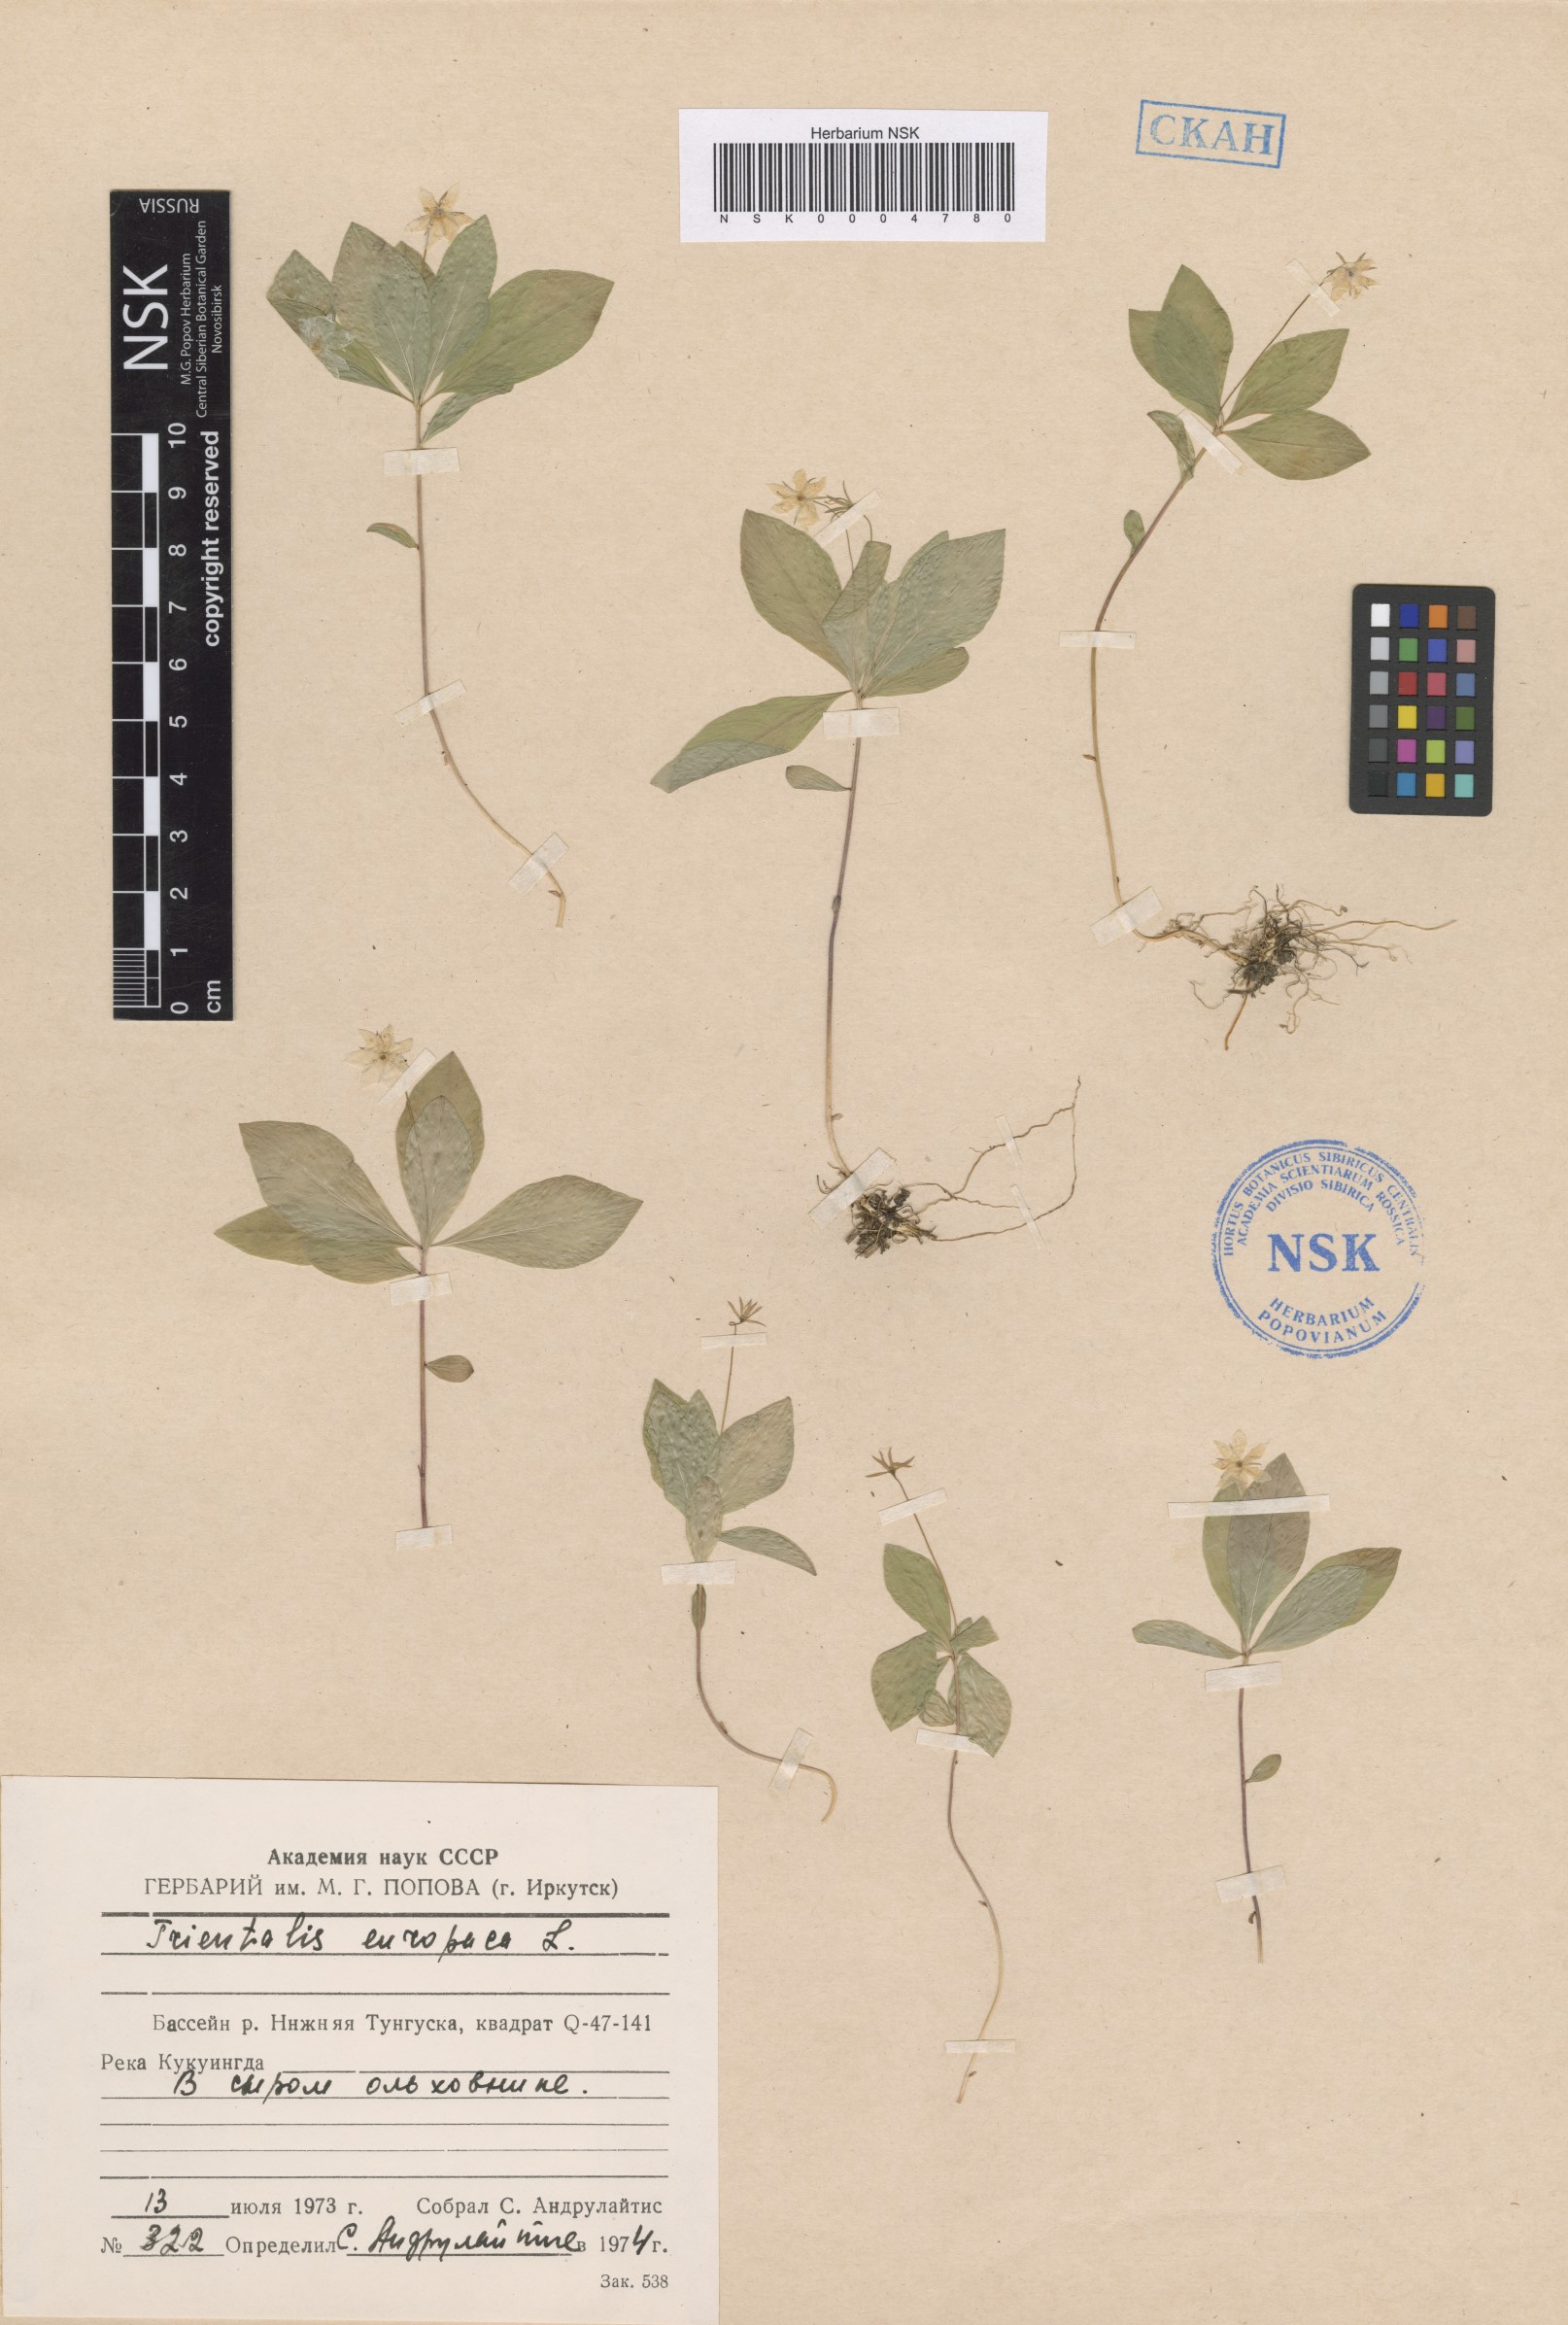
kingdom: Plantae
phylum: Tracheophyta
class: Magnoliopsida
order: Ericales
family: Primulaceae
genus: Lysimachia
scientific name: Lysimachia europaea
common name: Arctic starflower
